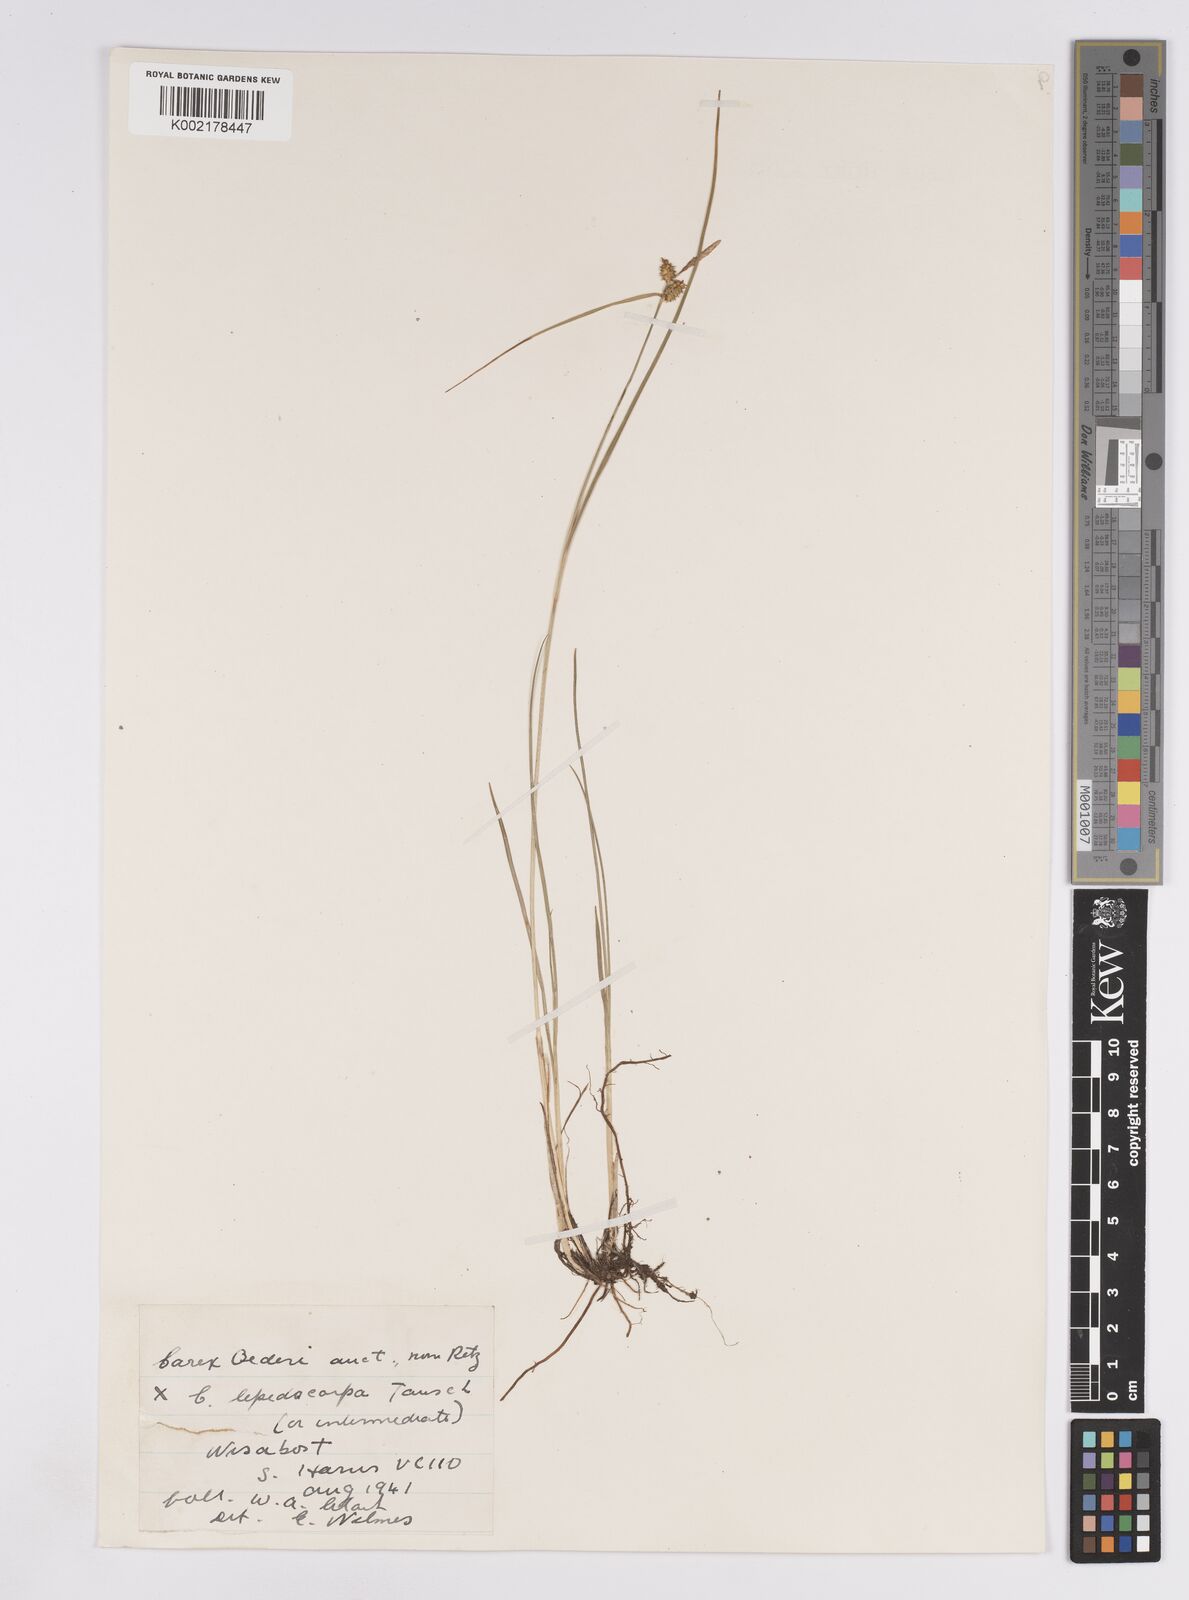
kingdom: Plantae
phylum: Tracheophyta
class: Liliopsida
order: Poales
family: Cyperaceae
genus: Carex
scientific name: Carex lepidocarpa
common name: Long-stalked yellow-sedge
